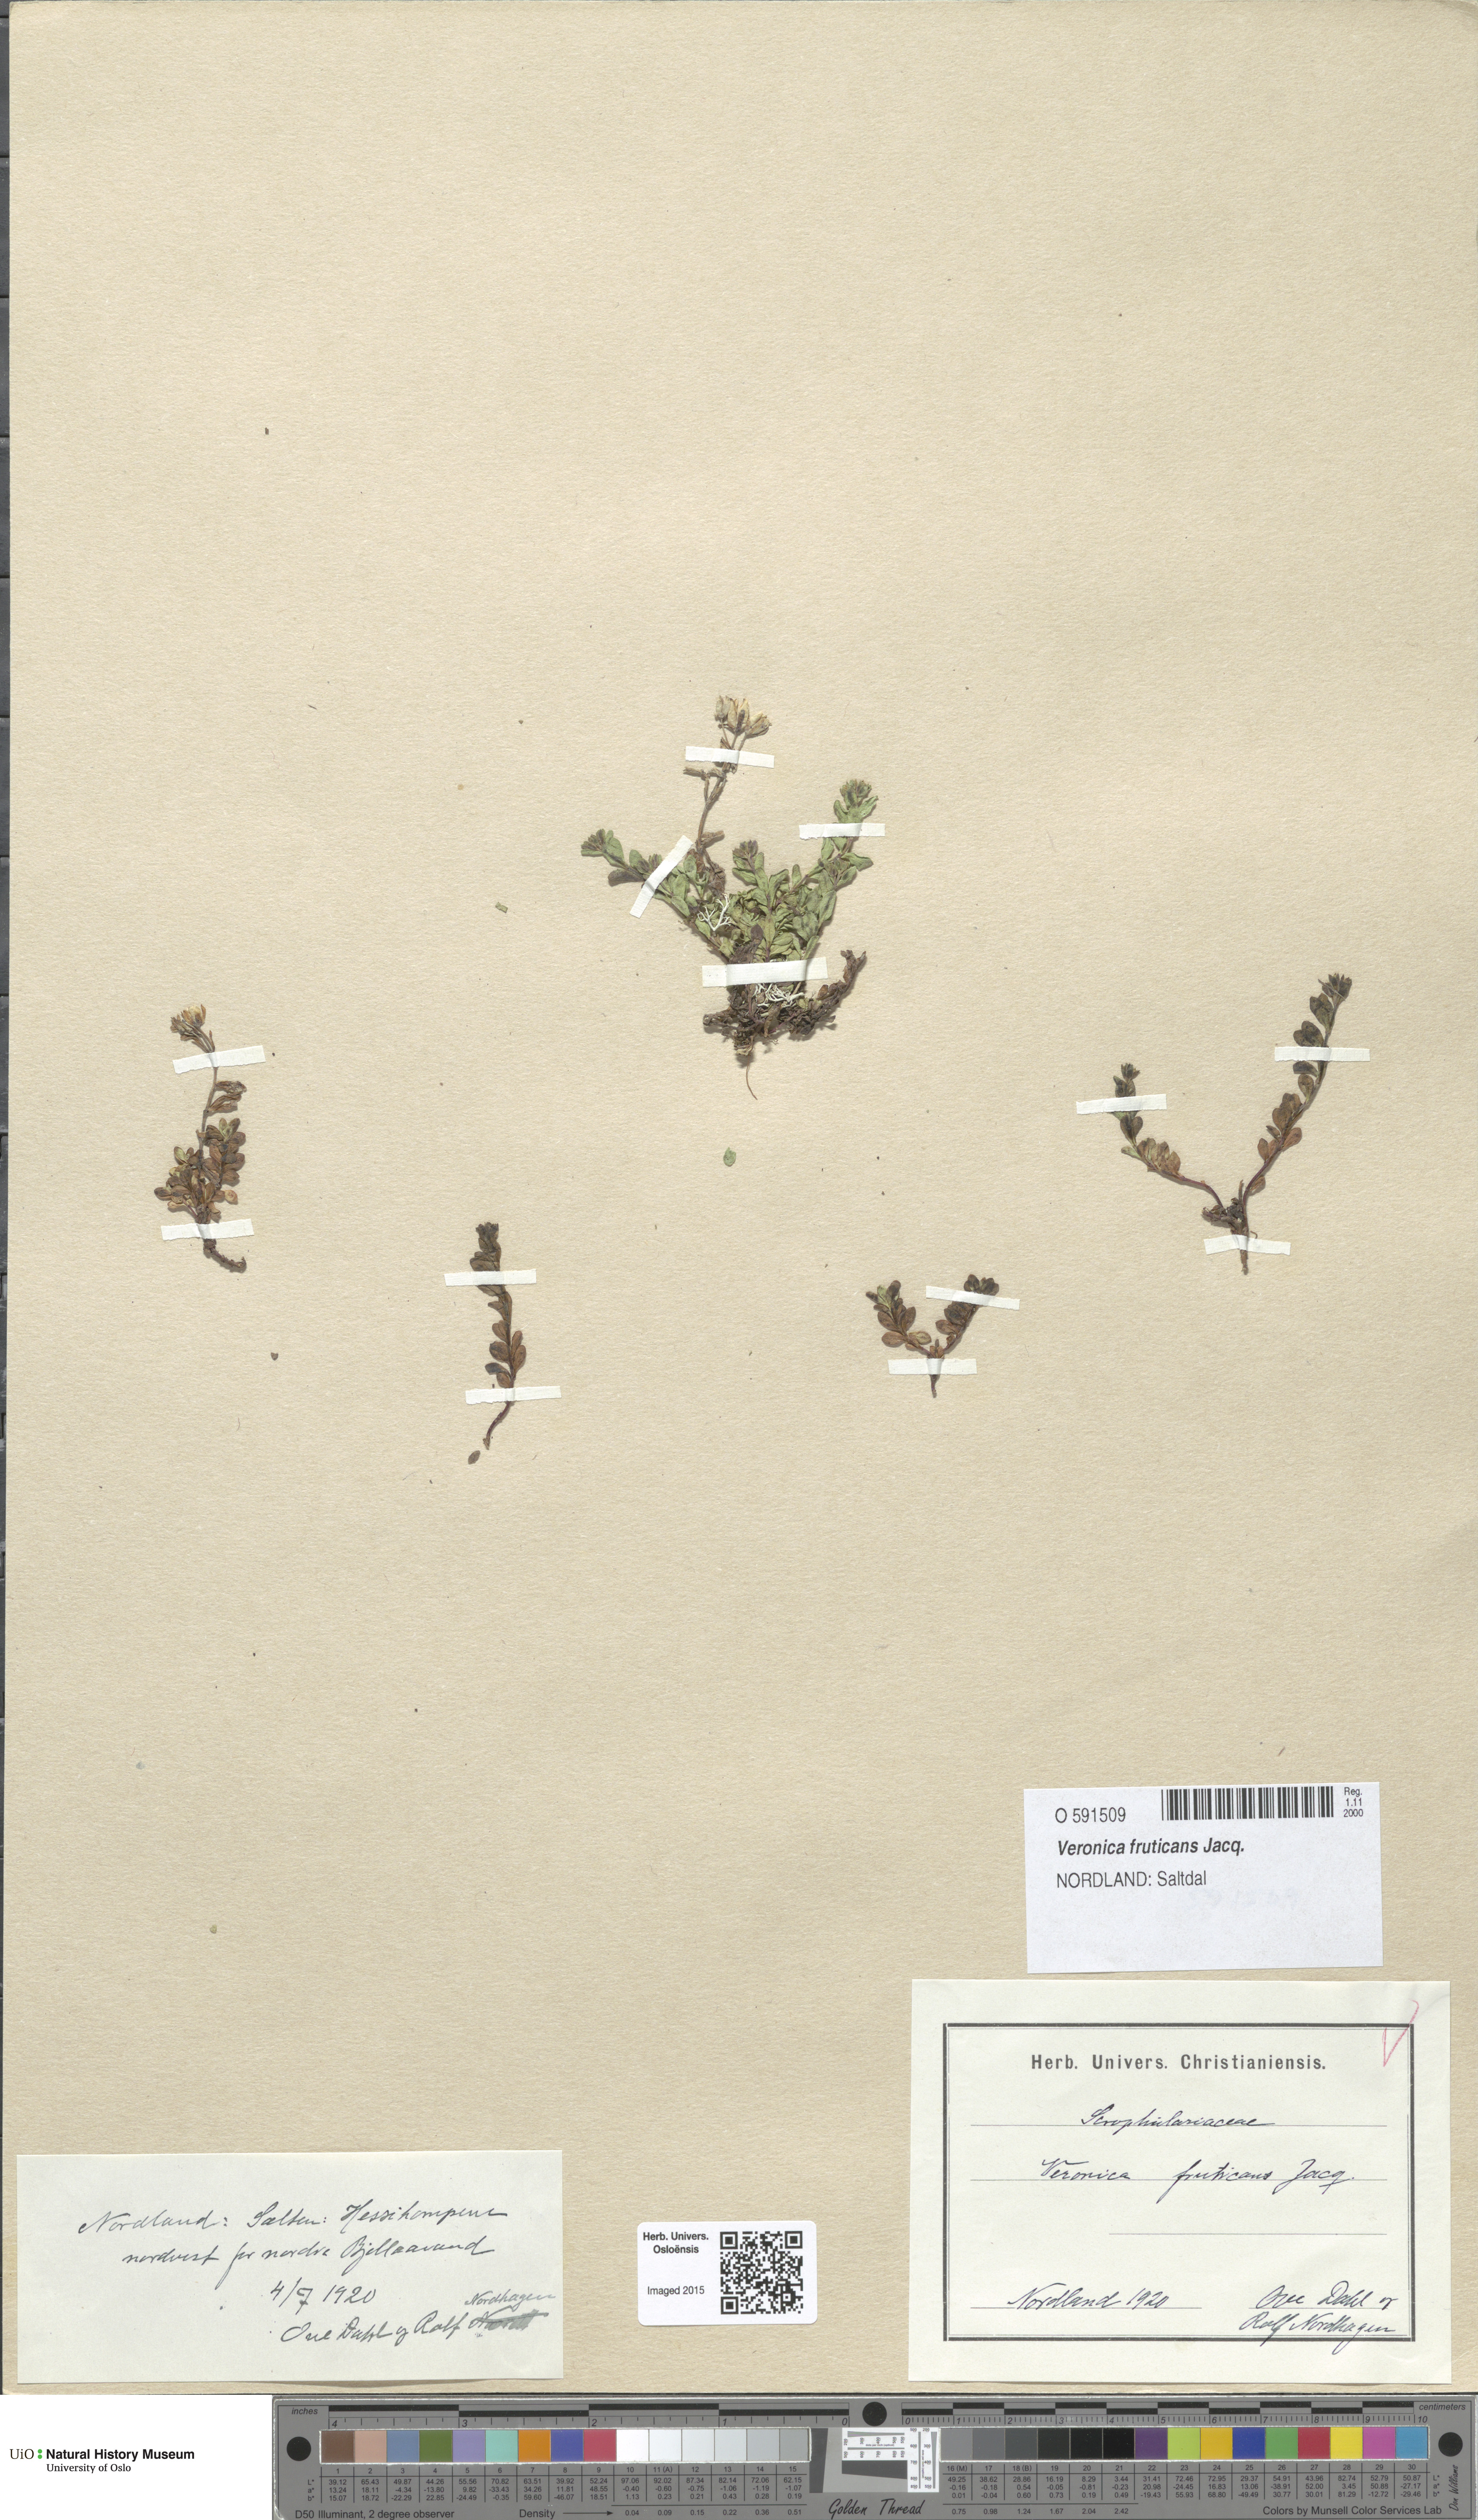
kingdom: Plantae
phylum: Tracheophyta
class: Magnoliopsida
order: Lamiales
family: Plantaginaceae
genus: Veronica
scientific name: Veronica fruticans
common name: Rock speedwell
